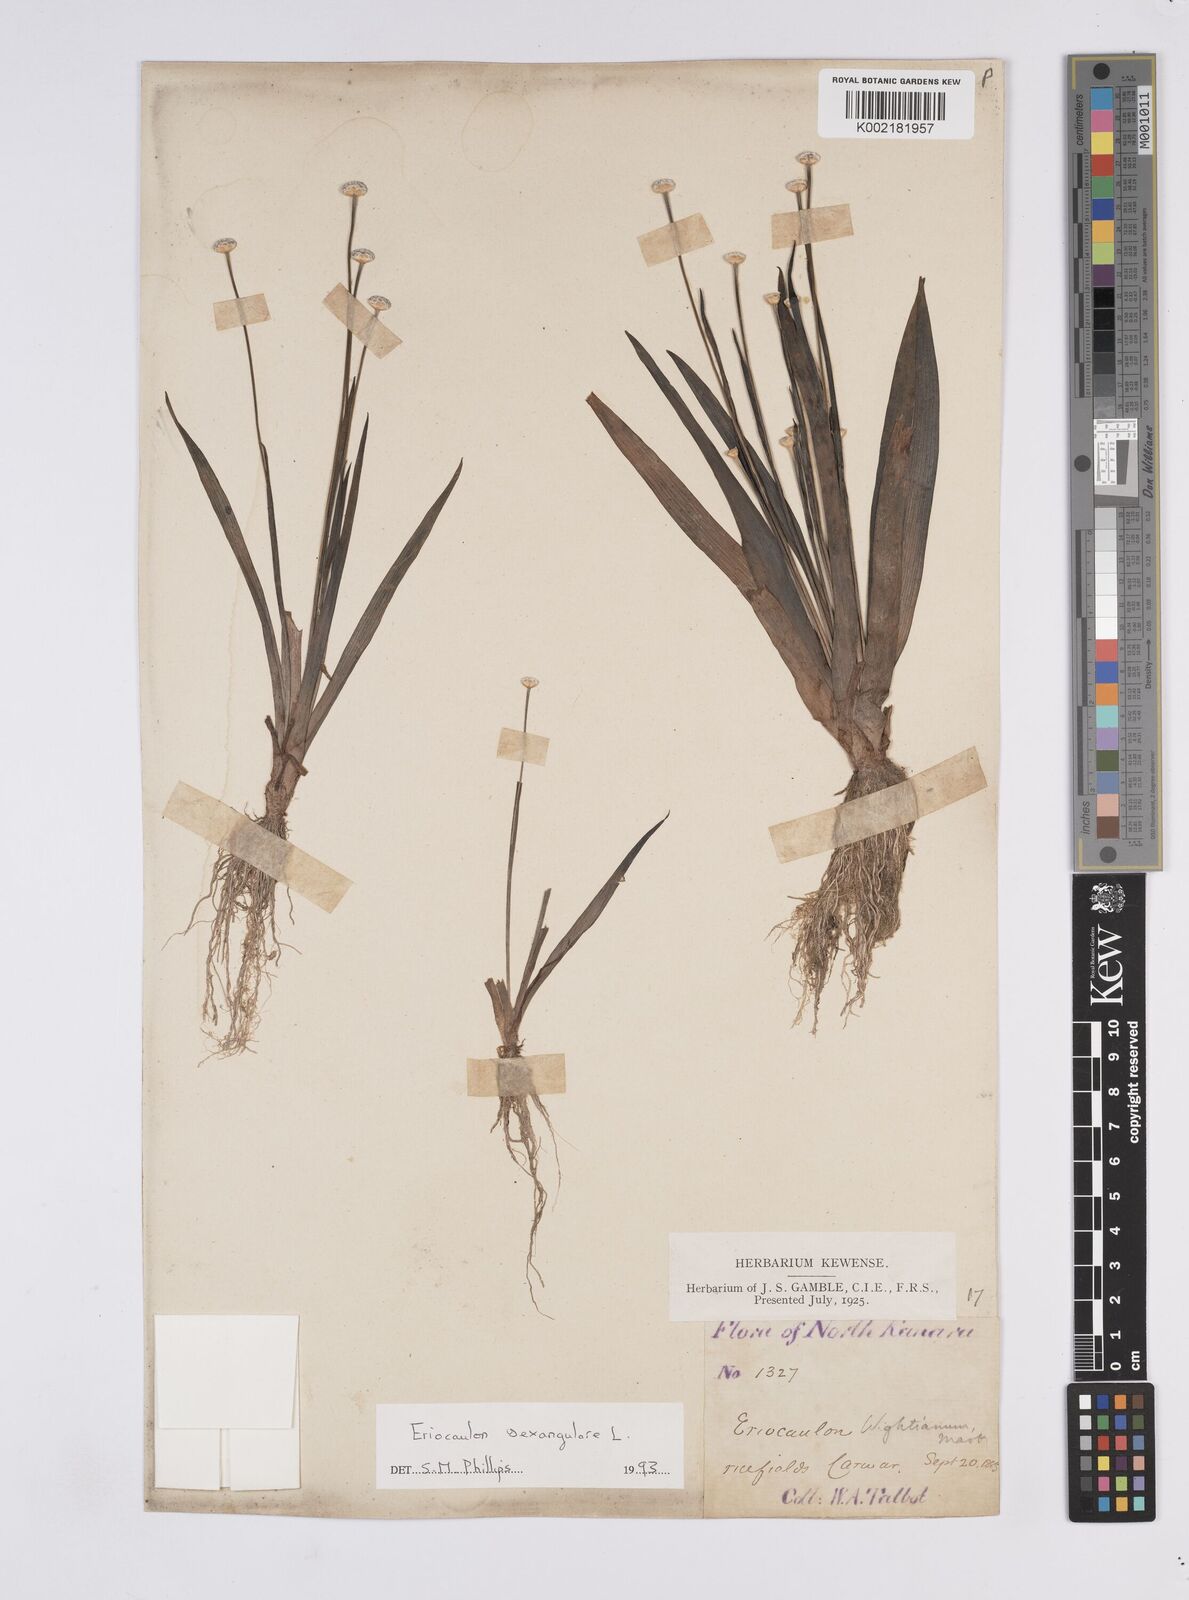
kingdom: Plantae
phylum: Tracheophyta
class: Liliopsida
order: Poales
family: Eriocaulaceae
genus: Eriocaulon
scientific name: Eriocaulon sexangulare
